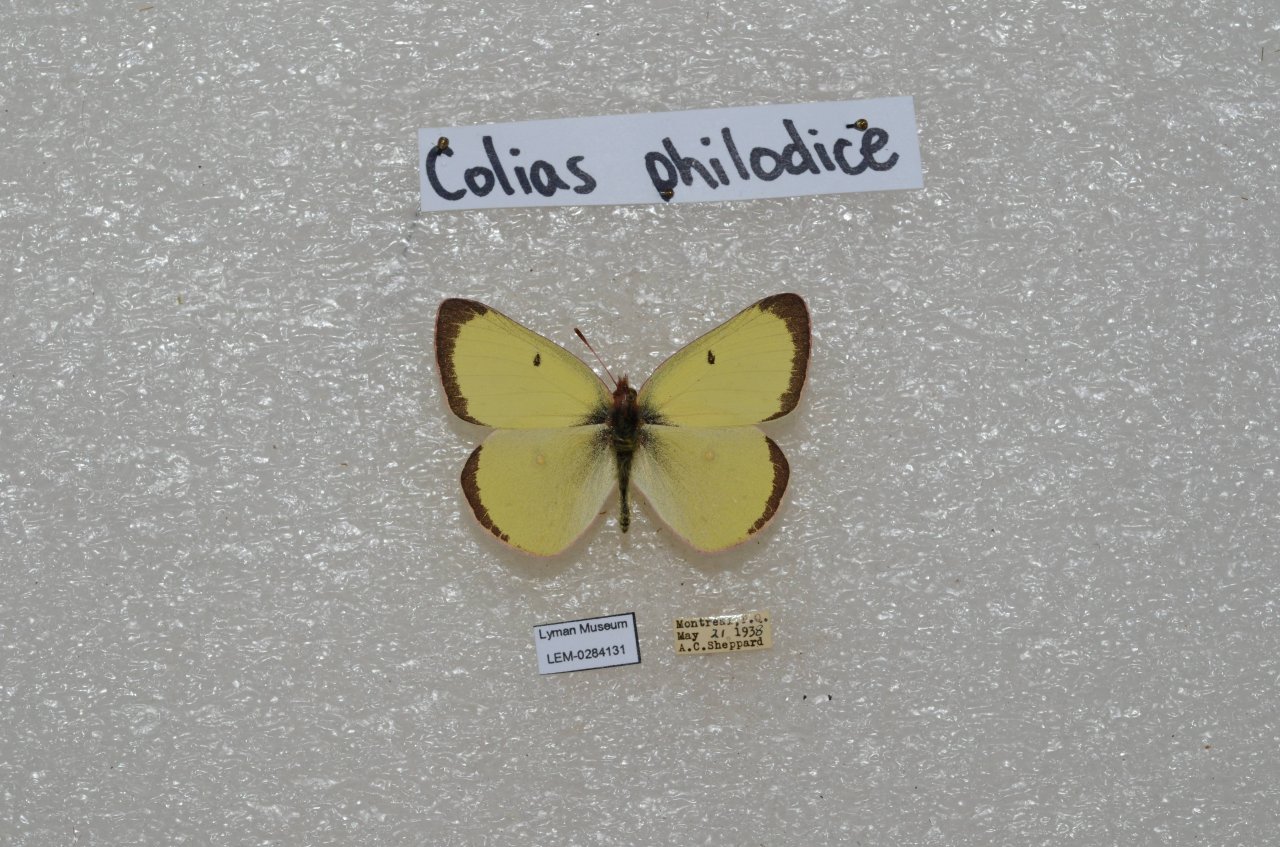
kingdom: Animalia
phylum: Arthropoda
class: Insecta
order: Lepidoptera
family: Pieridae
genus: Colias
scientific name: Colias philodice
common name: Clouded Sulphur
